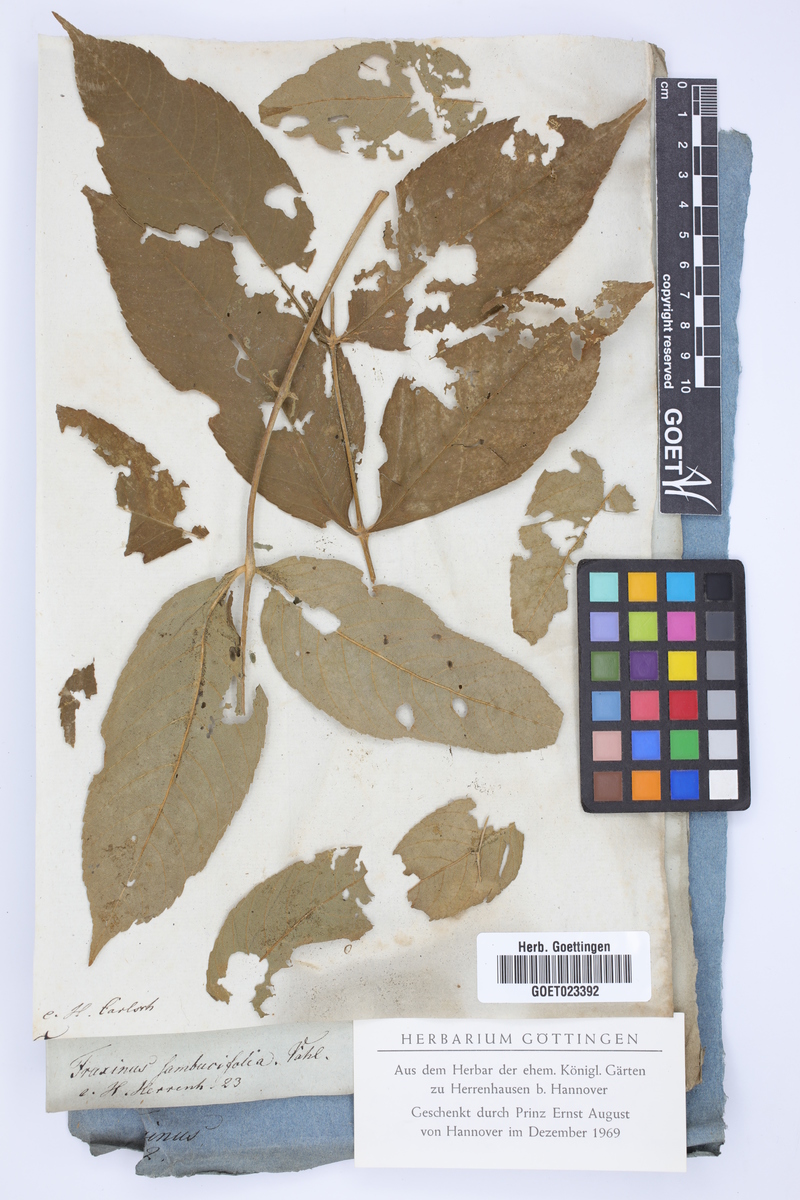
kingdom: Plantae
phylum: Tracheophyta
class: Magnoliopsida
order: Lamiales
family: Oleaceae
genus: Fraxinus
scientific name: Fraxinus nigra
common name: Black ash
